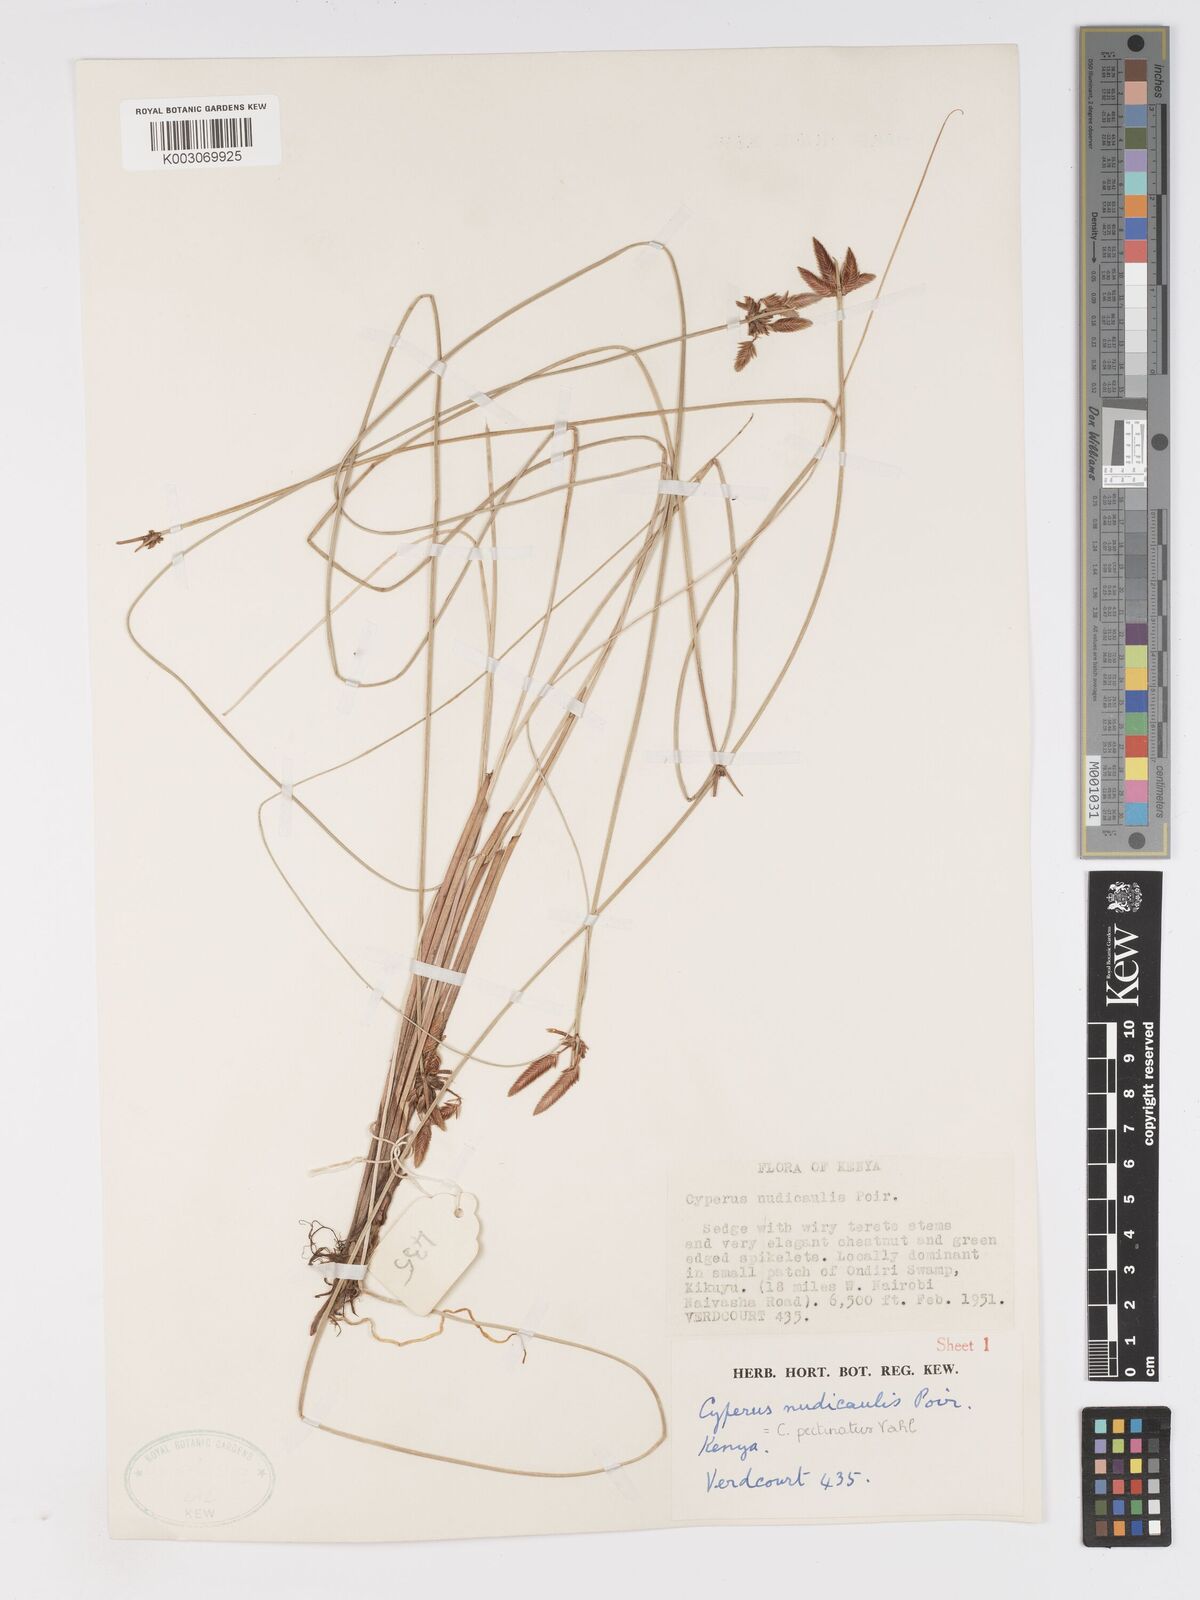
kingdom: Plantae
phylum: Tracheophyta
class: Liliopsida
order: Poales
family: Cyperaceae
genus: Cyperus
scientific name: Cyperus pectinatus
